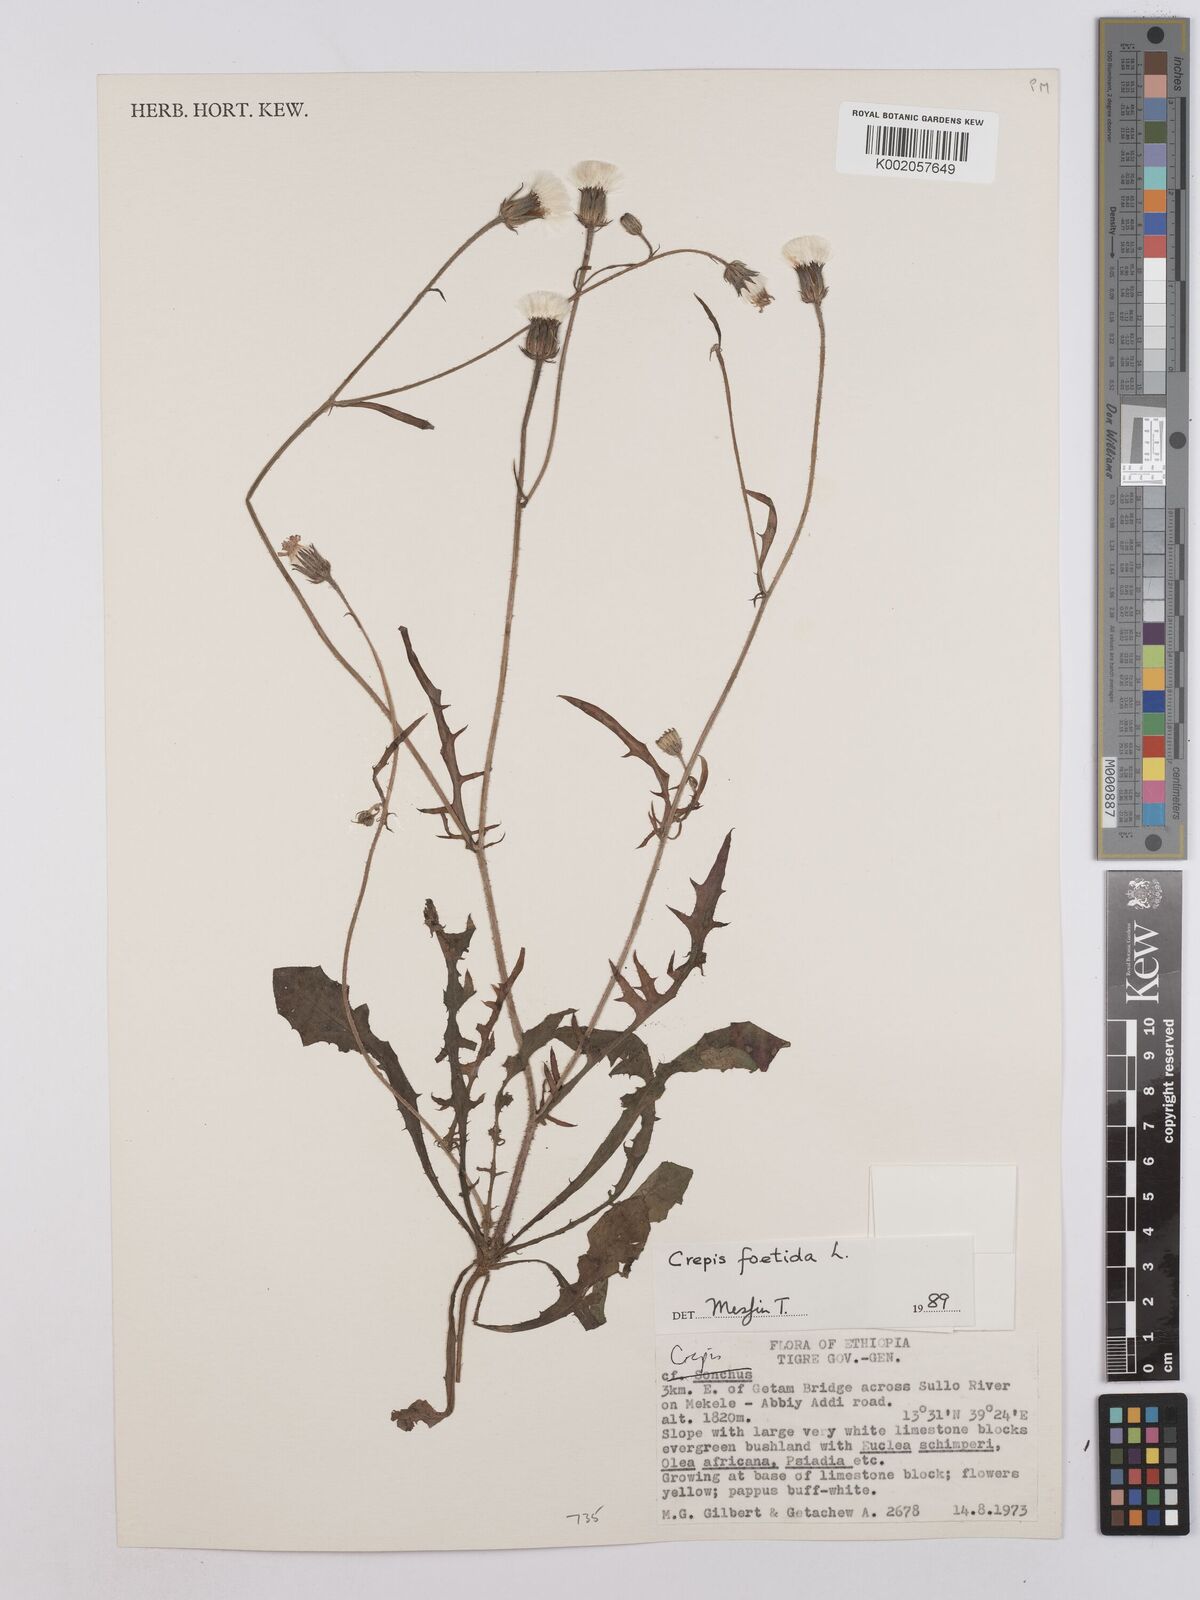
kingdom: Plantae
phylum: Tracheophyta
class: Magnoliopsida
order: Asterales
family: Asteraceae
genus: Crepis
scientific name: Crepis foetida
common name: Stinking hawk's-beard
